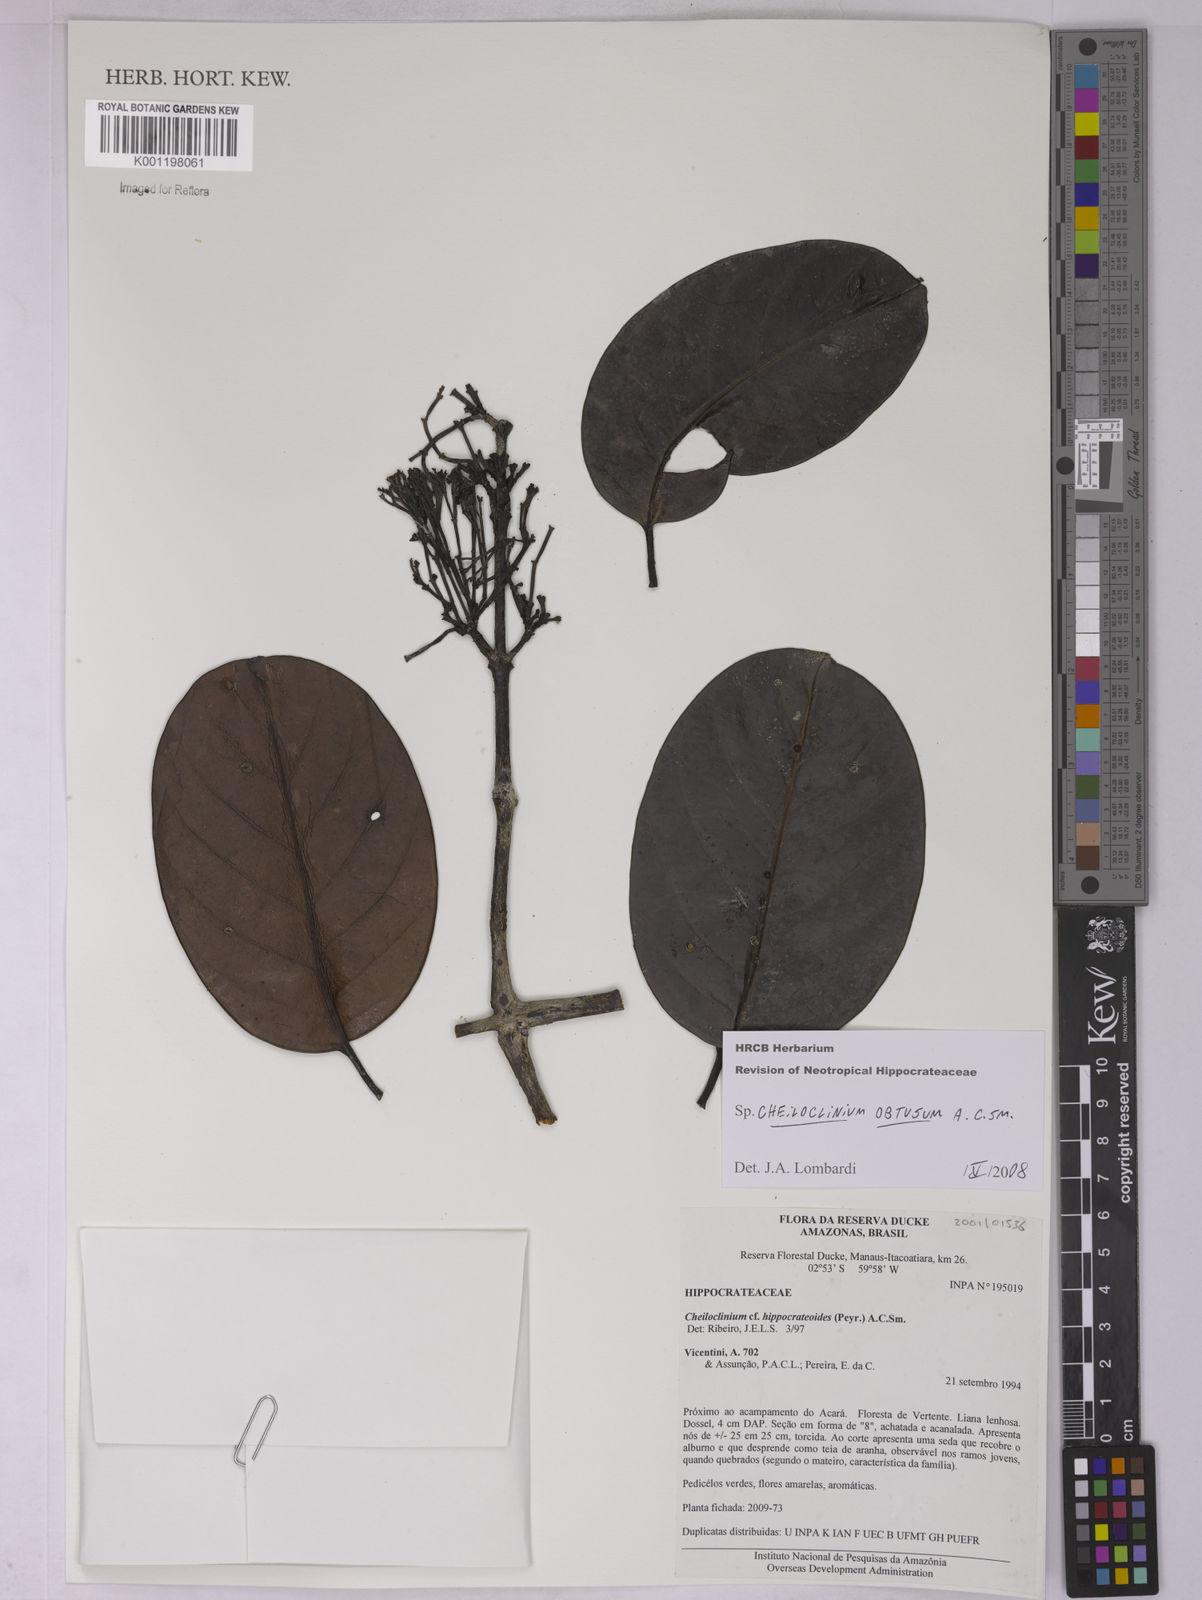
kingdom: Plantae
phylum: Tracheophyta
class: Magnoliopsida
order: Celastrales
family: Celastraceae
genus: Cheiloclinium
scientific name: Cheiloclinium obtusum
